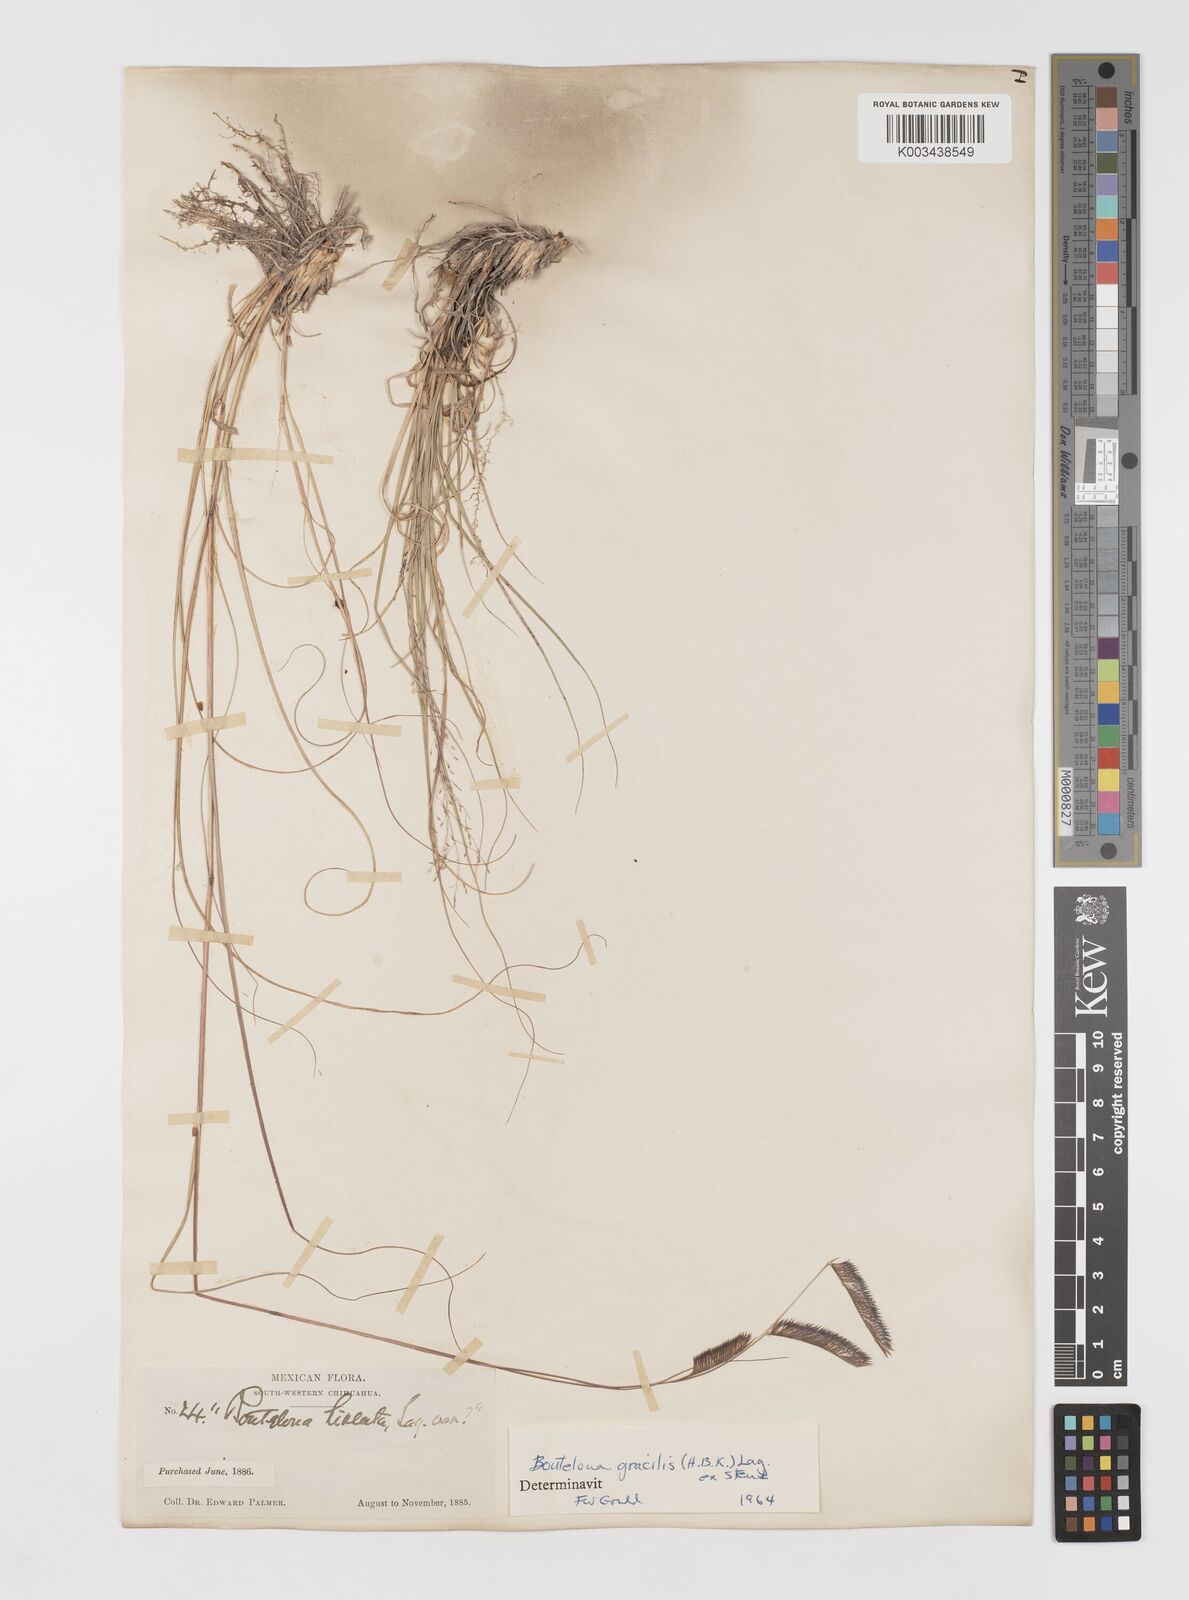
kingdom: Plantae
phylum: Tracheophyta
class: Liliopsida
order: Poales
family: Poaceae
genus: Bouteloua
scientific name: Bouteloua gracilis
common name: Blue grama
